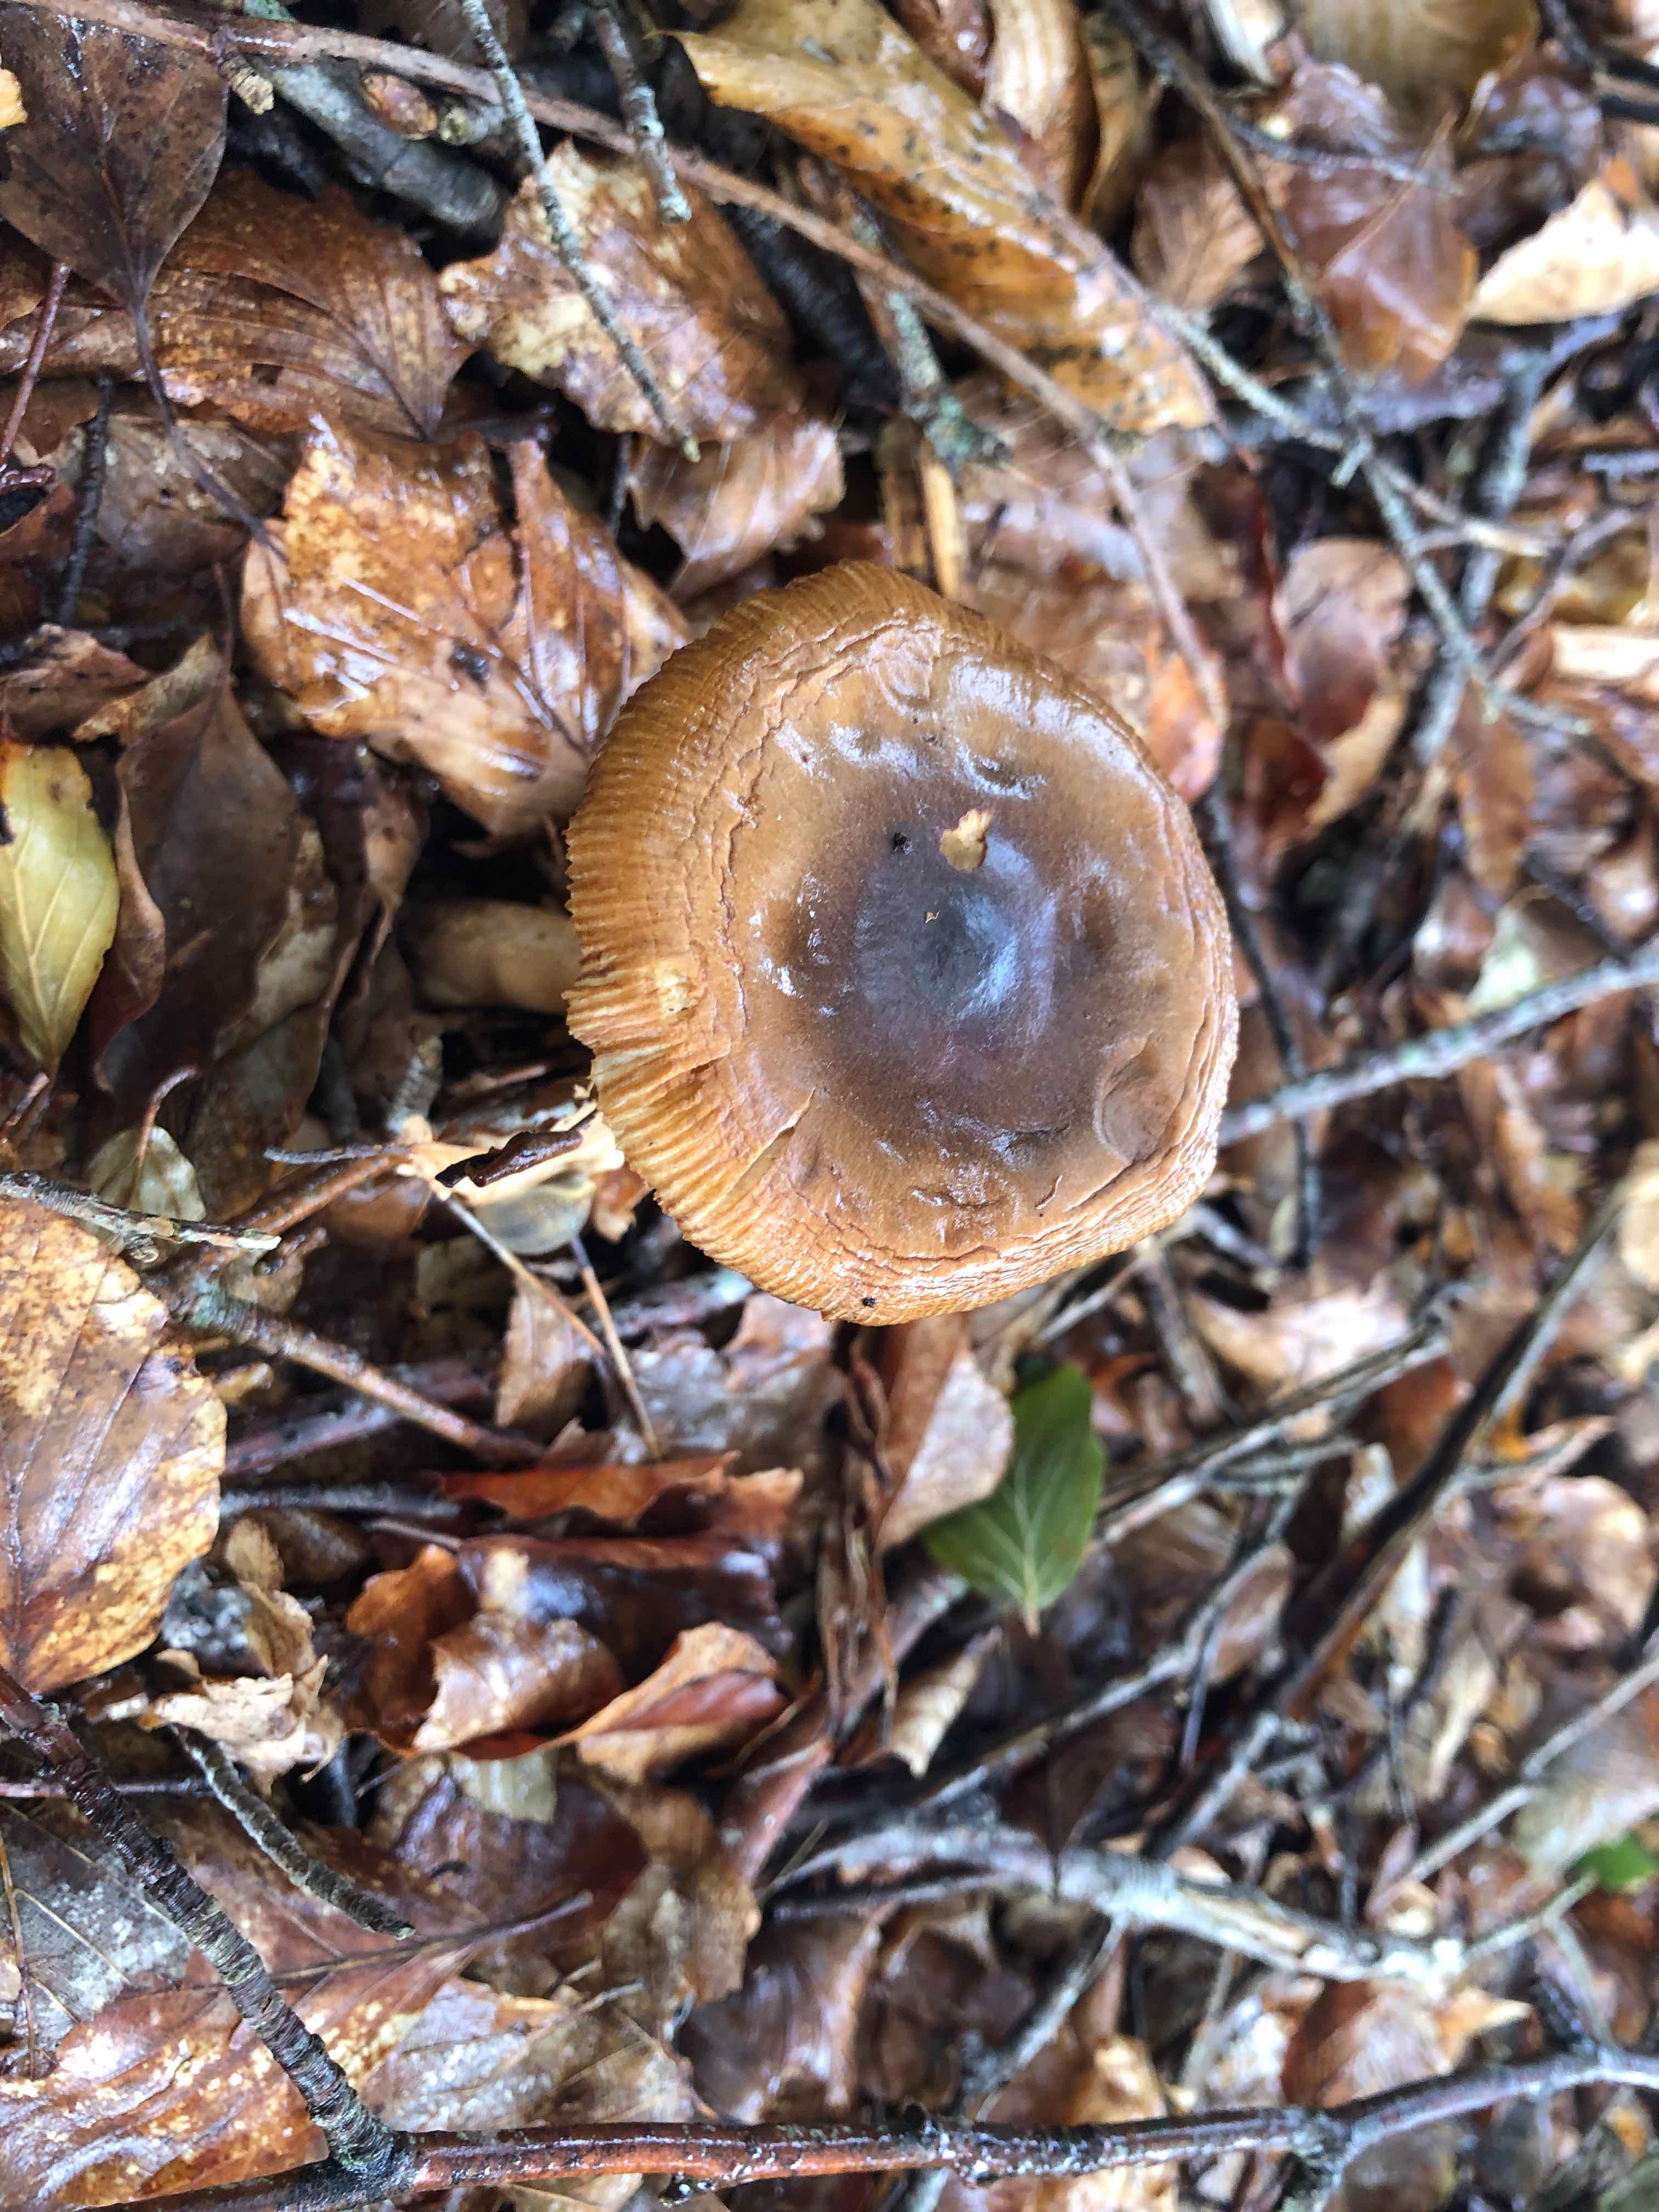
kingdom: Fungi
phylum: Basidiomycota
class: Agaricomycetes
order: Agaricales
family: Amanitaceae
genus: Amanita
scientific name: Amanita fulva
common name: brun kam-fluesvamp
